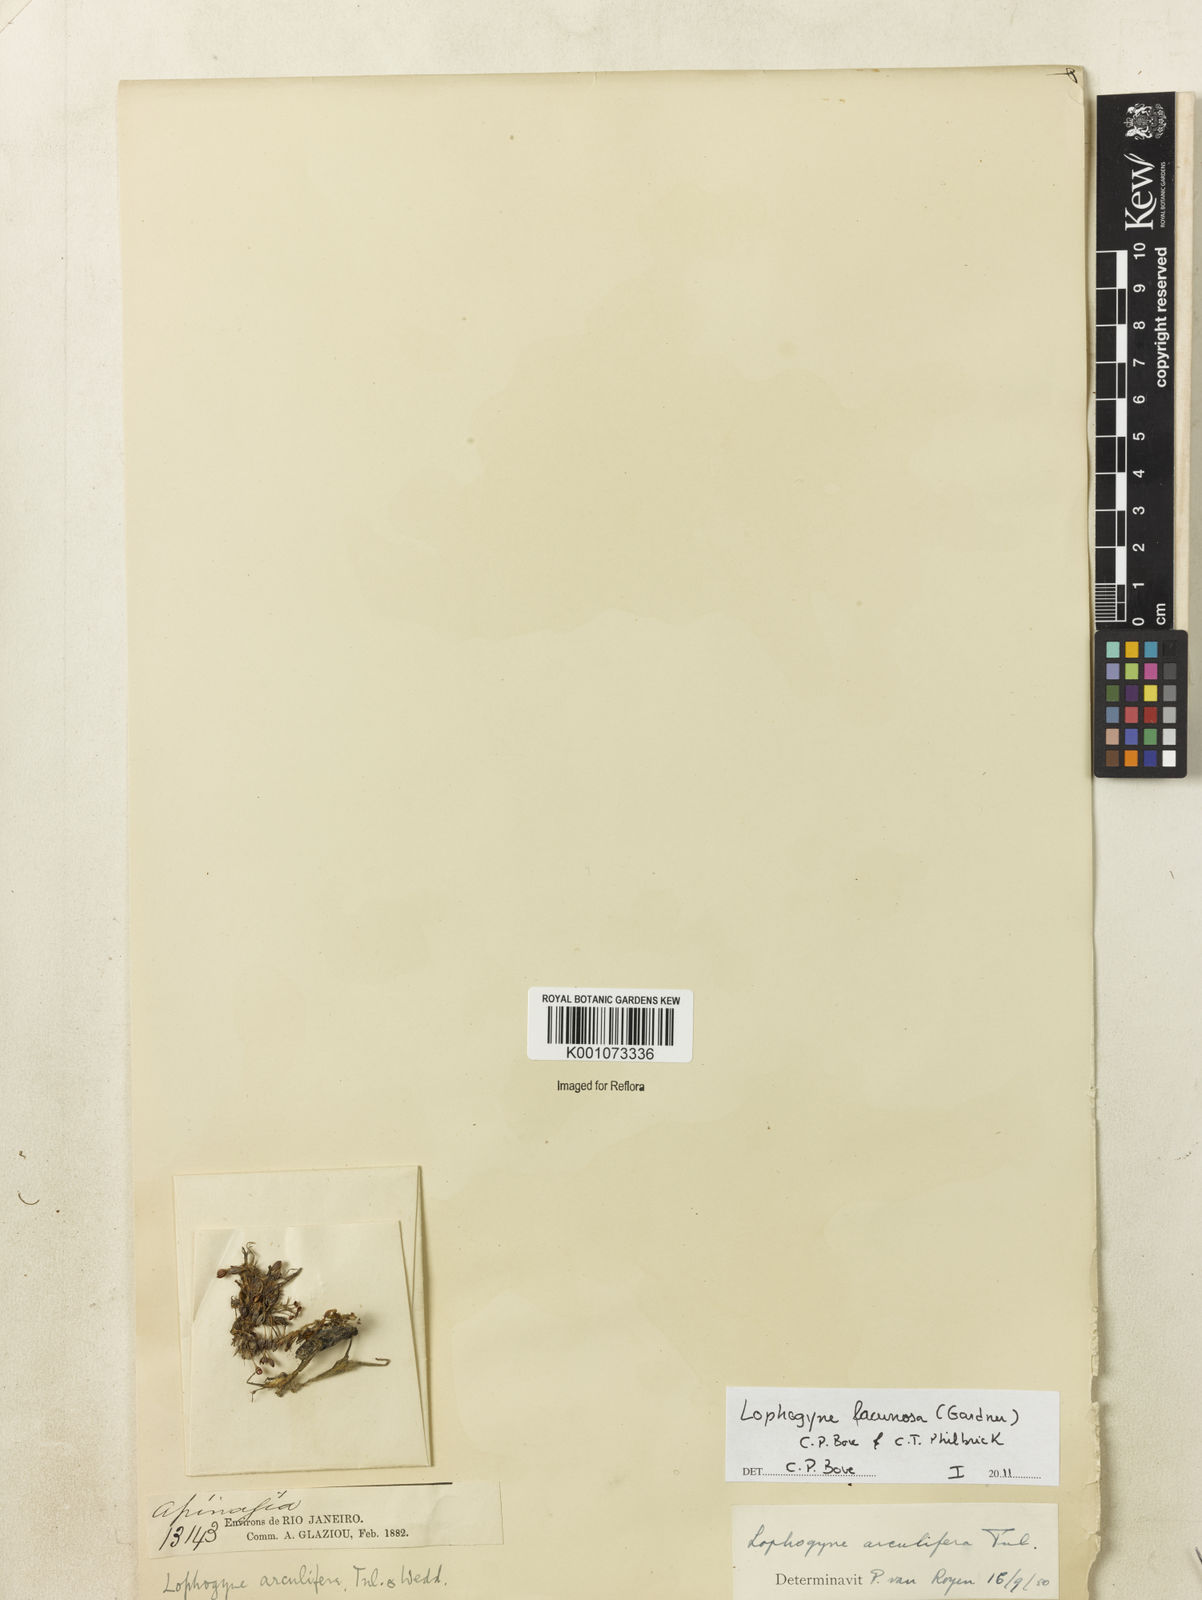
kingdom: Plantae
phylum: Tracheophyta
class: Magnoliopsida
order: Malpighiales
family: Podostemaceae
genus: Lophogyne
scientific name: Lophogyne lacunosa
